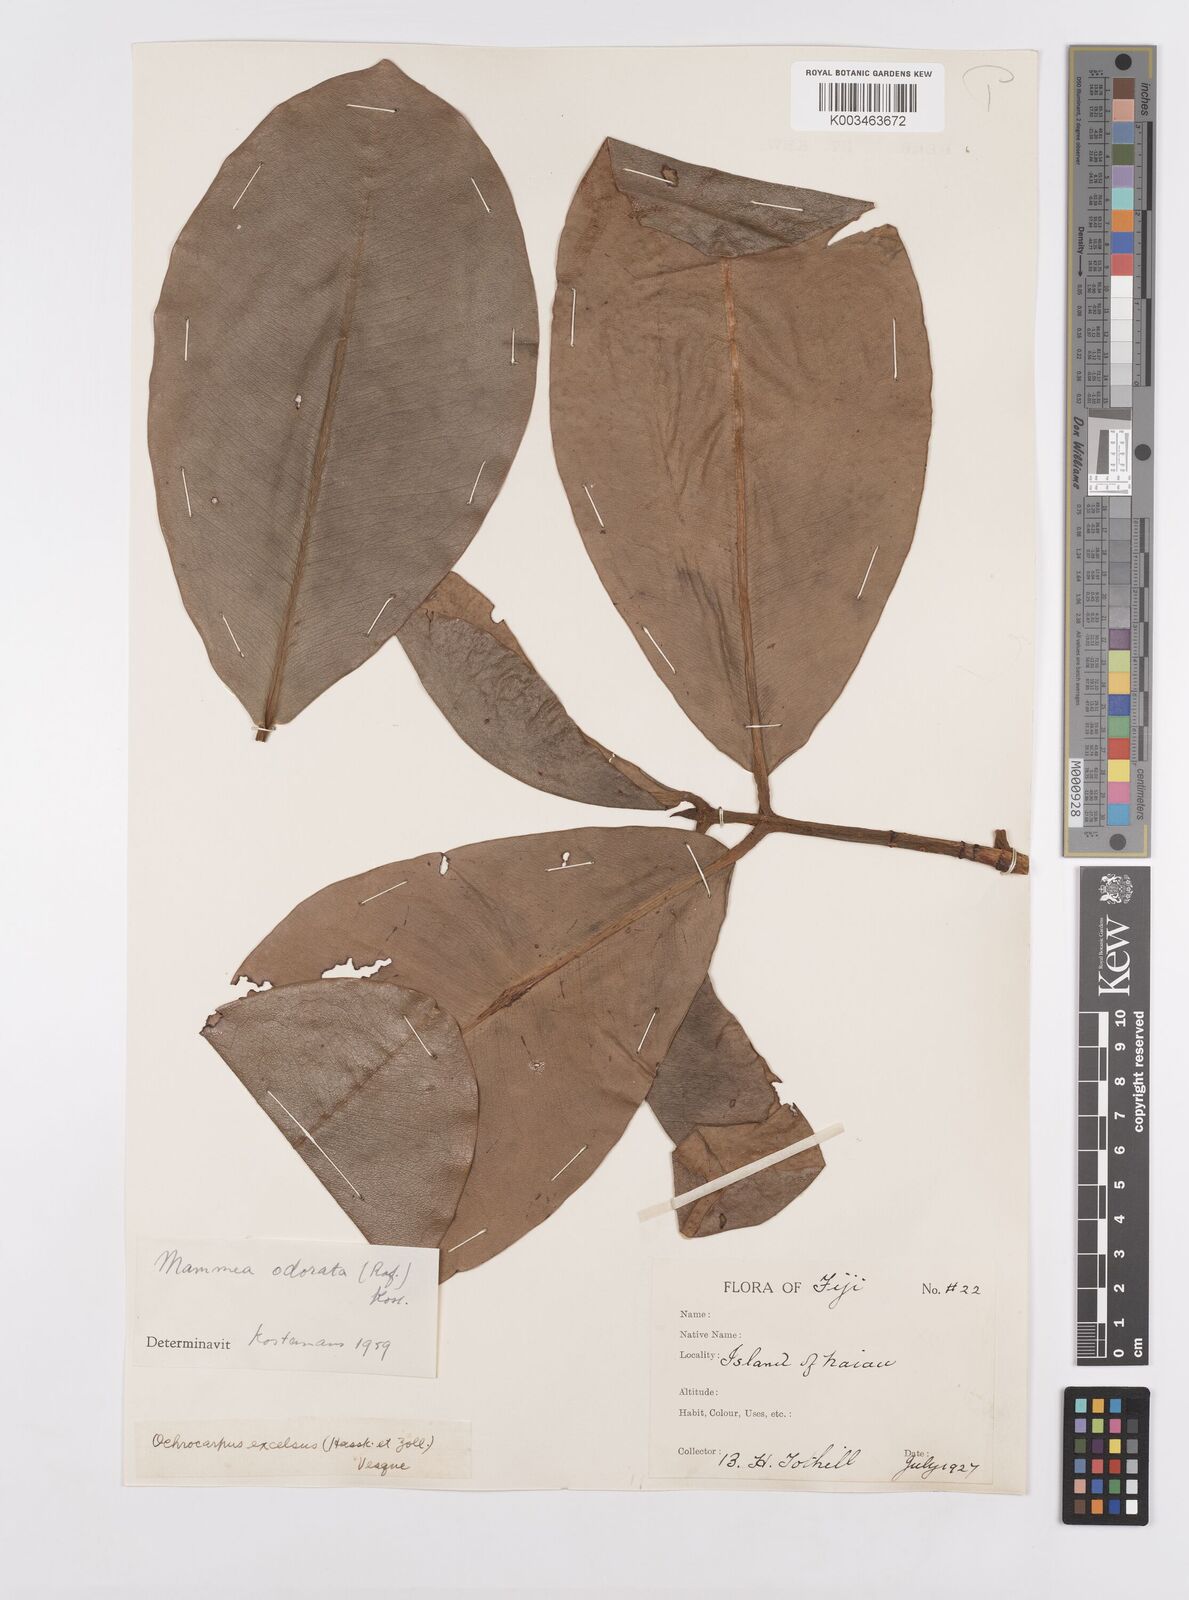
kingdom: Plantae
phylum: Tracheophyta
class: Magnoliopsida
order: Malpighiales
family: Calophyllaceae
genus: Mammea
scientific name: Mammea odorata
